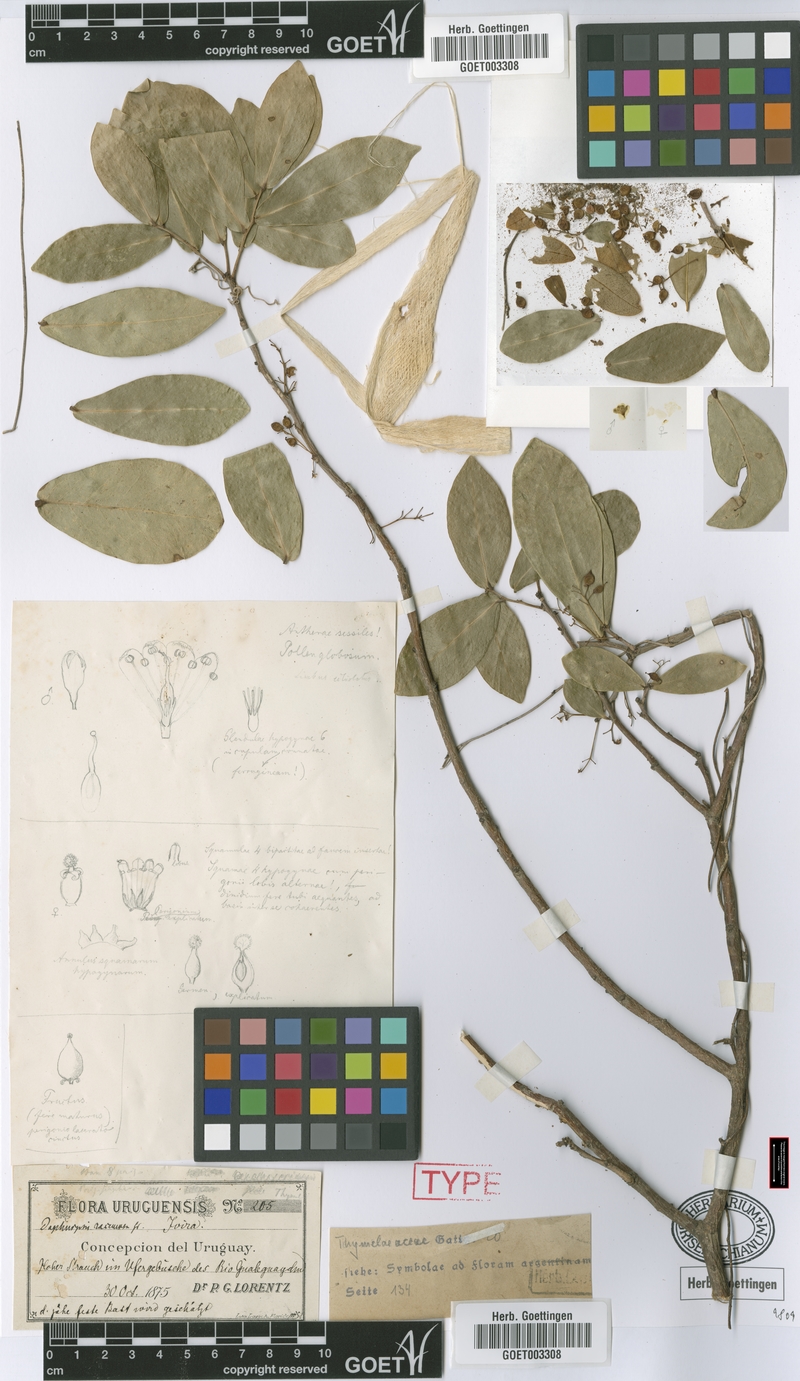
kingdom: Plantae
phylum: Tracheophyta
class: Magnoliopsida
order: Malvales
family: Thymelaeaceae
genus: Daphnopsis
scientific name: Daphnopsis racemosa
